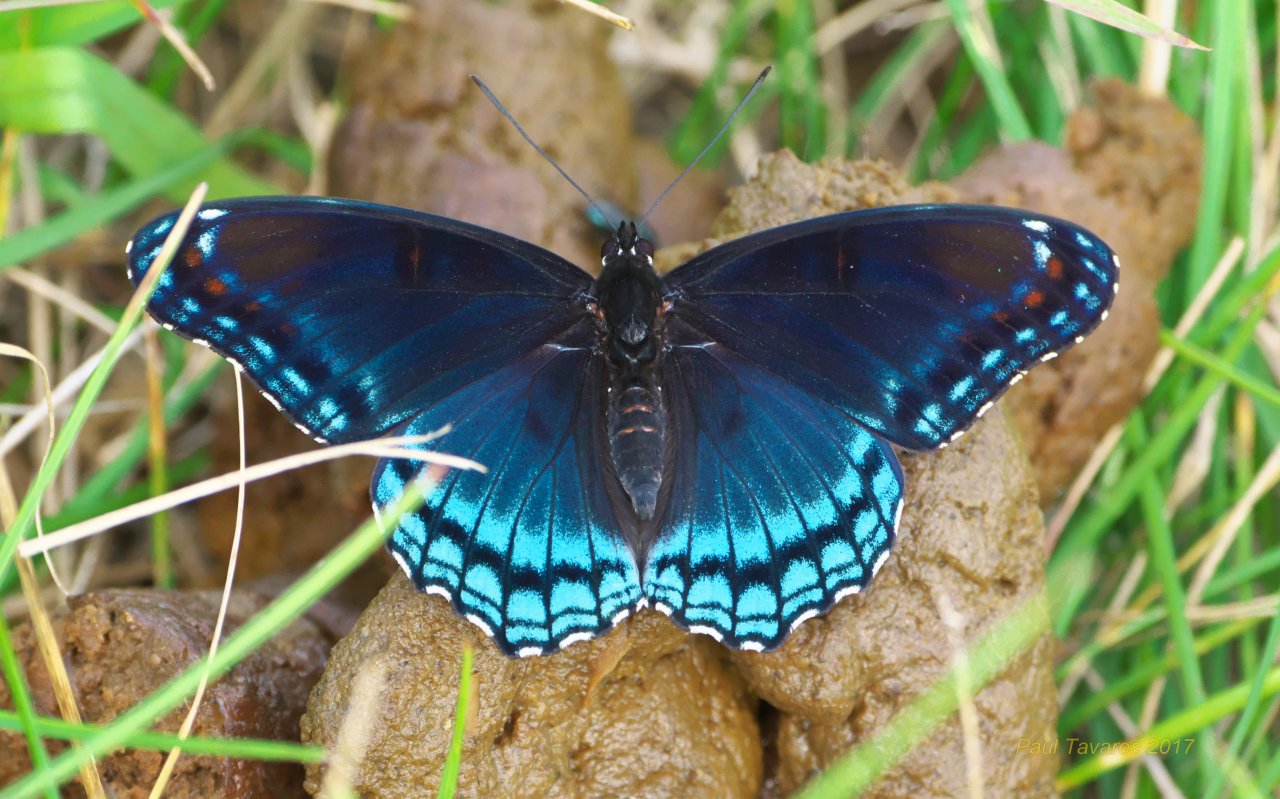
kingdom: Animalia
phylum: Arthropoda
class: Insecta
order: Lepidoptera
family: Nymphalidae
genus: Limenitis
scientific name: Limenitis astyanax
